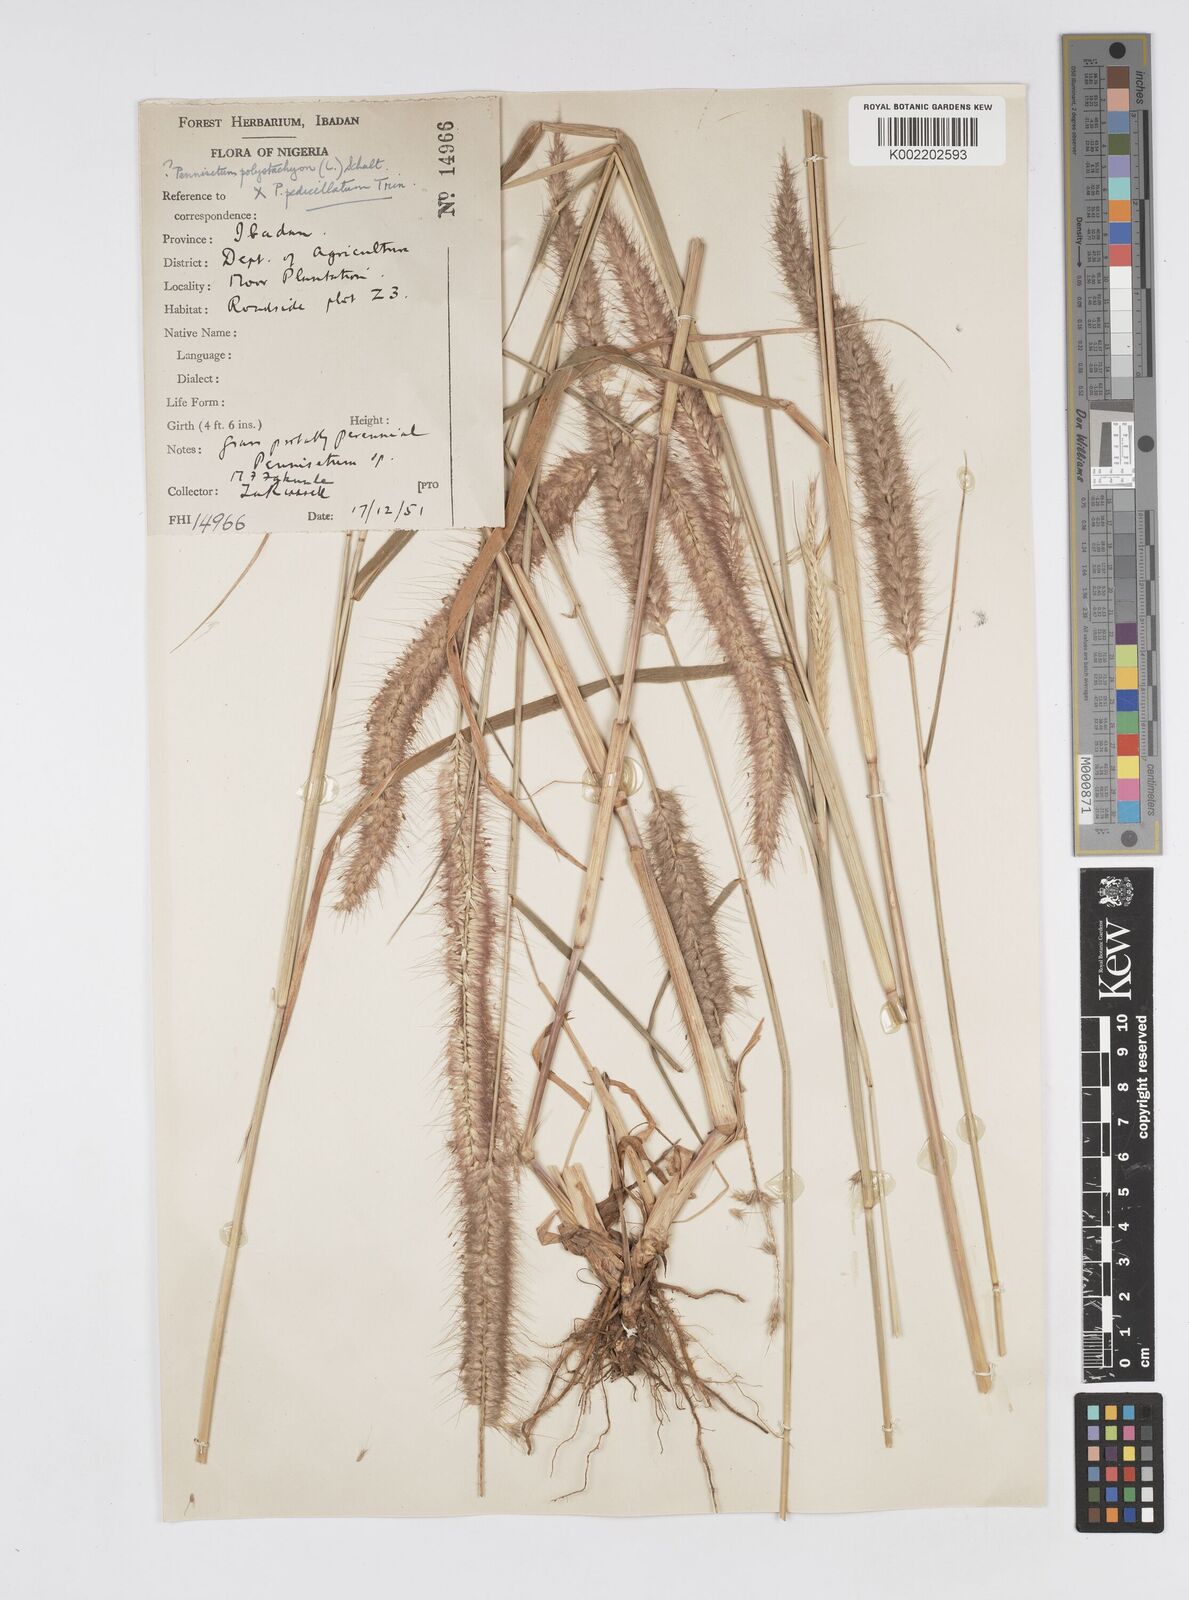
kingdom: Plantae
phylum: Tracheophyta
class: Liliopsida
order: Poales
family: Poaceae
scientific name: Poaceae
